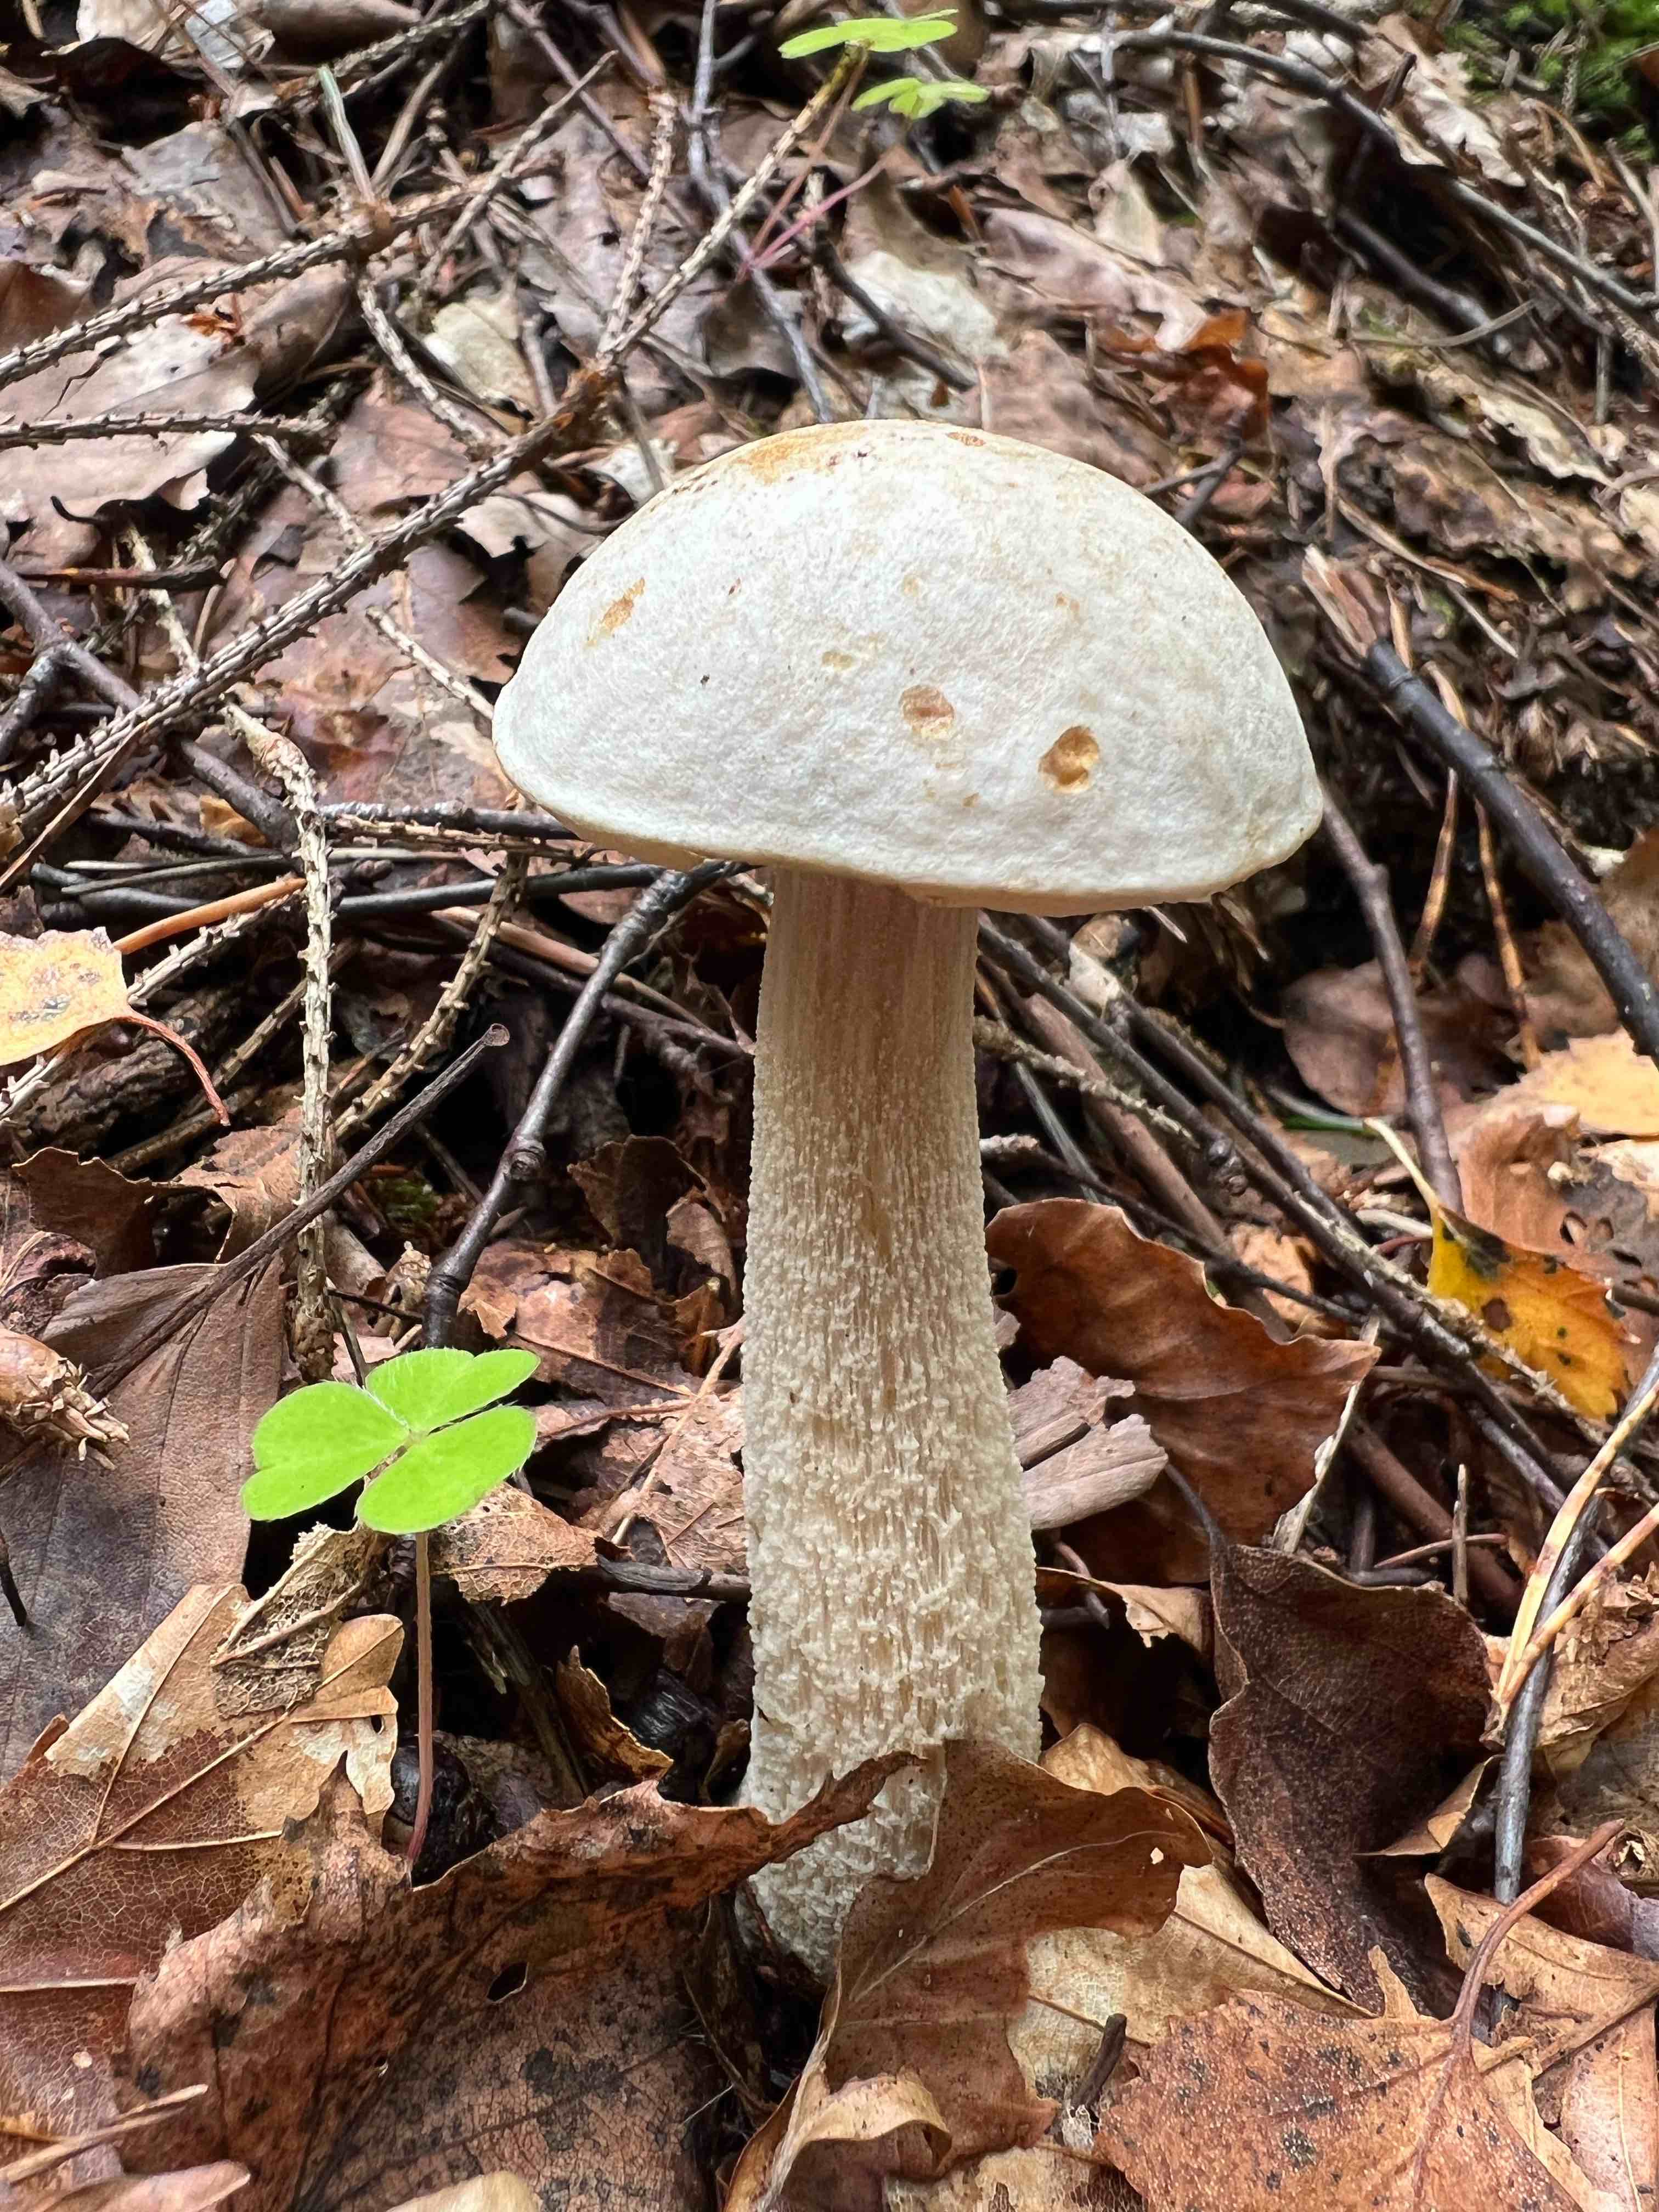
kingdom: Fungi
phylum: Basidiomycota
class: Agaricomycetes
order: Boletales
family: Boletaceae
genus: Leccinum
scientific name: Leccinum
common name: skælrørhat
